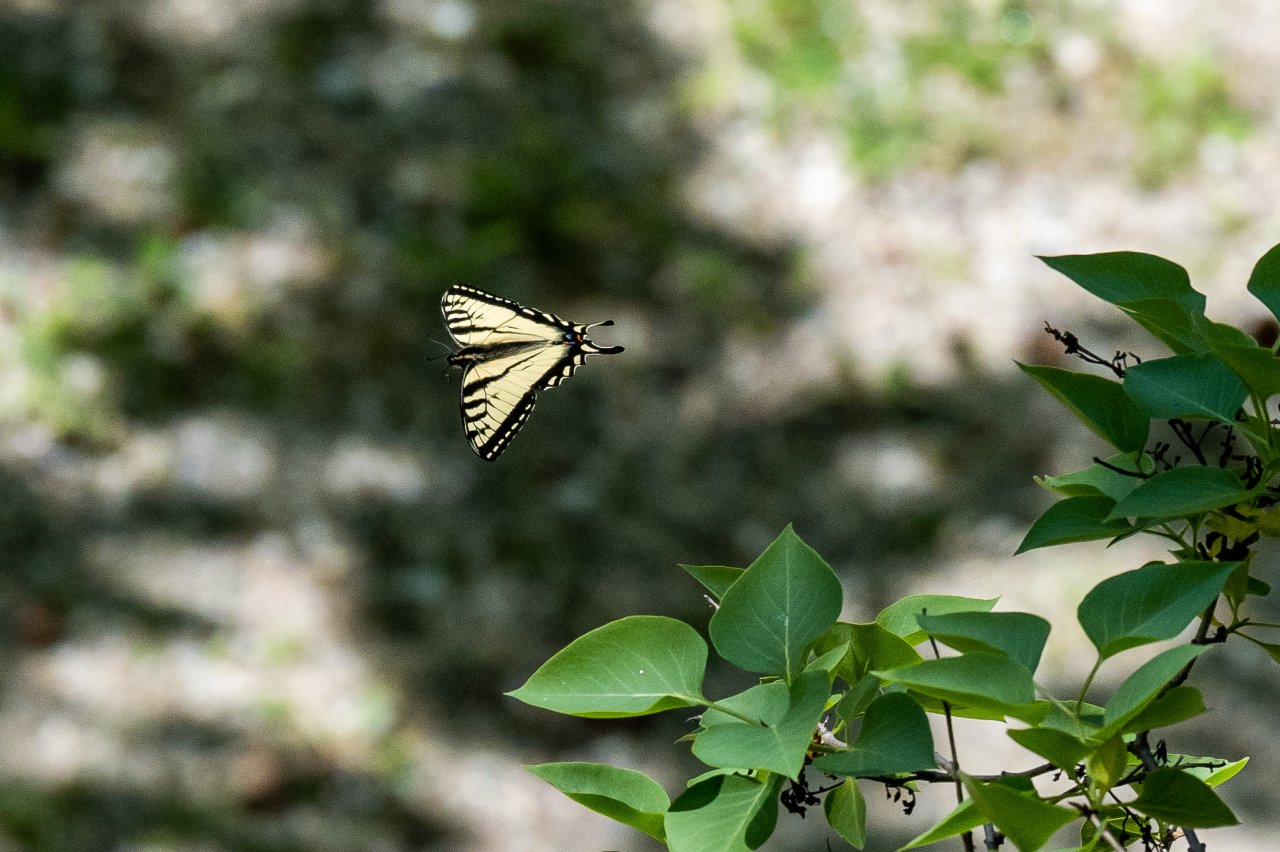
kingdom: Animalia
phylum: Arthropoda
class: Insecta
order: Lepidoptera
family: Papilionidae
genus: Pterourus
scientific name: Pterourus canadensis
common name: Canadian Tiger Swallowtail
